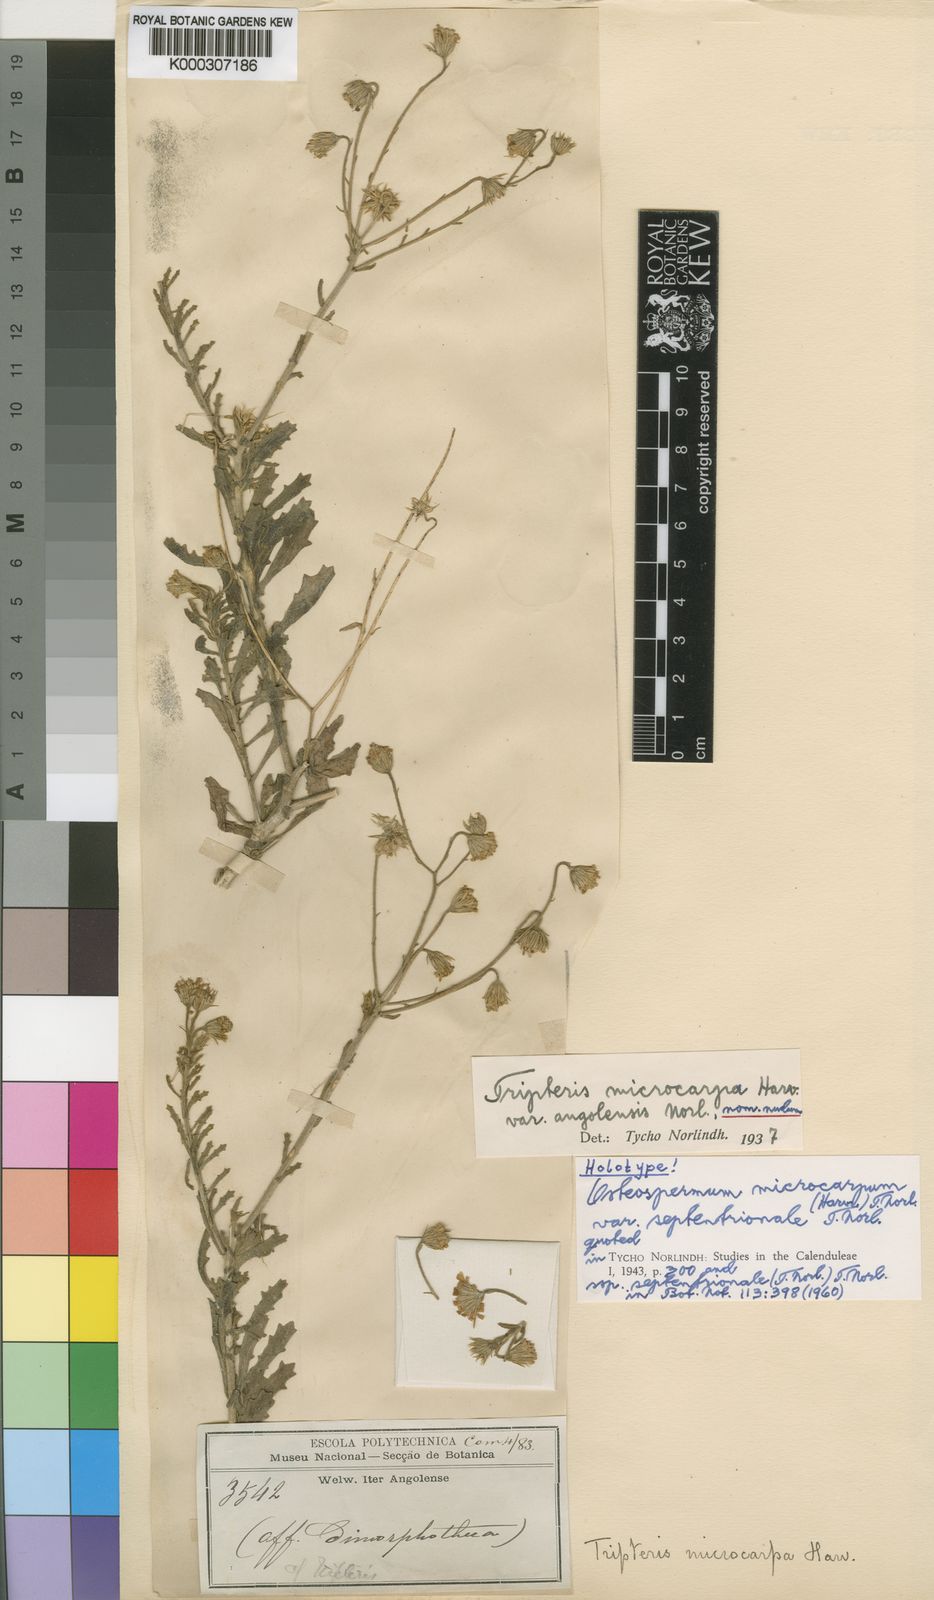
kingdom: Plantae
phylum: Tracheophyta
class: Magnoliopsida
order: Asterales
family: Asteraceae
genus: Osteospermum
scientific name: Osteospermum microcarpum
